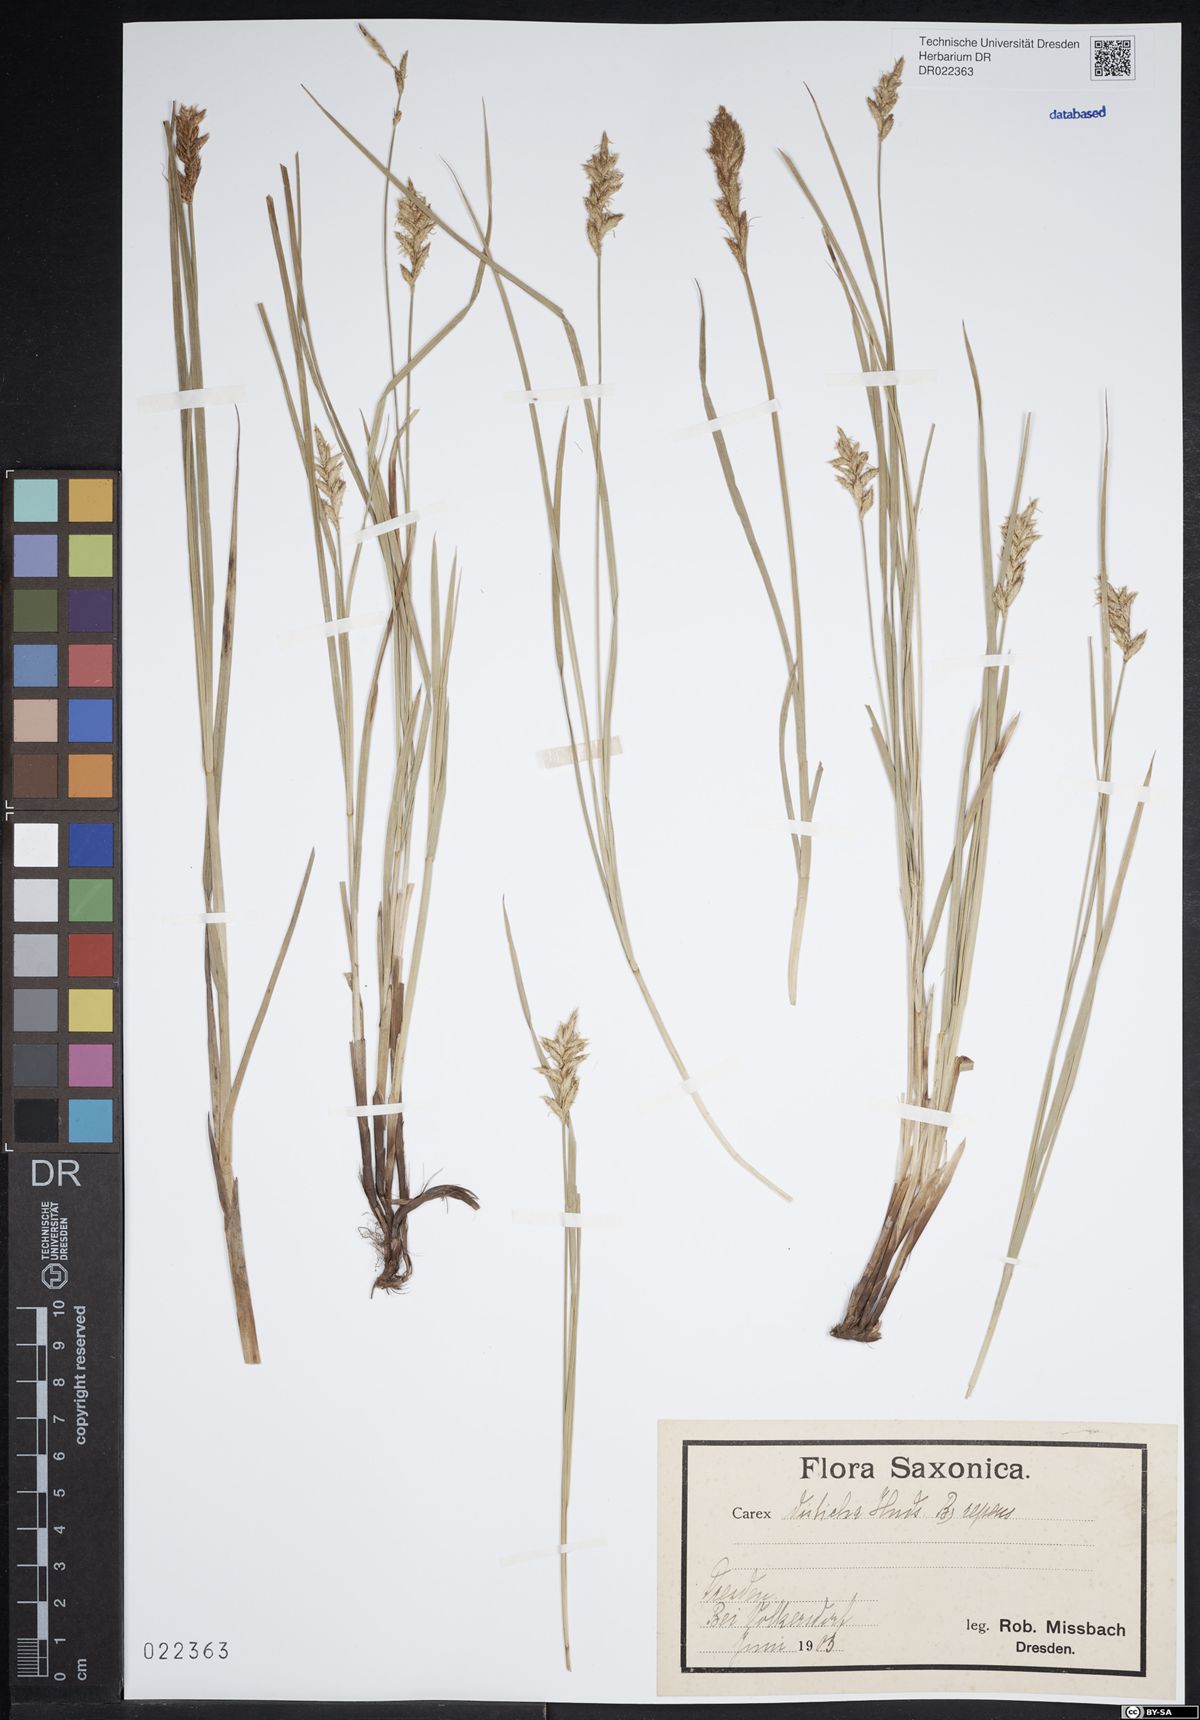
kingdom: Plantae
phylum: Tracheophyta
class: Liliopsida
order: Poales
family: Cyperaceae
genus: Carex
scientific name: Carex disticha
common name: Brown sedge
